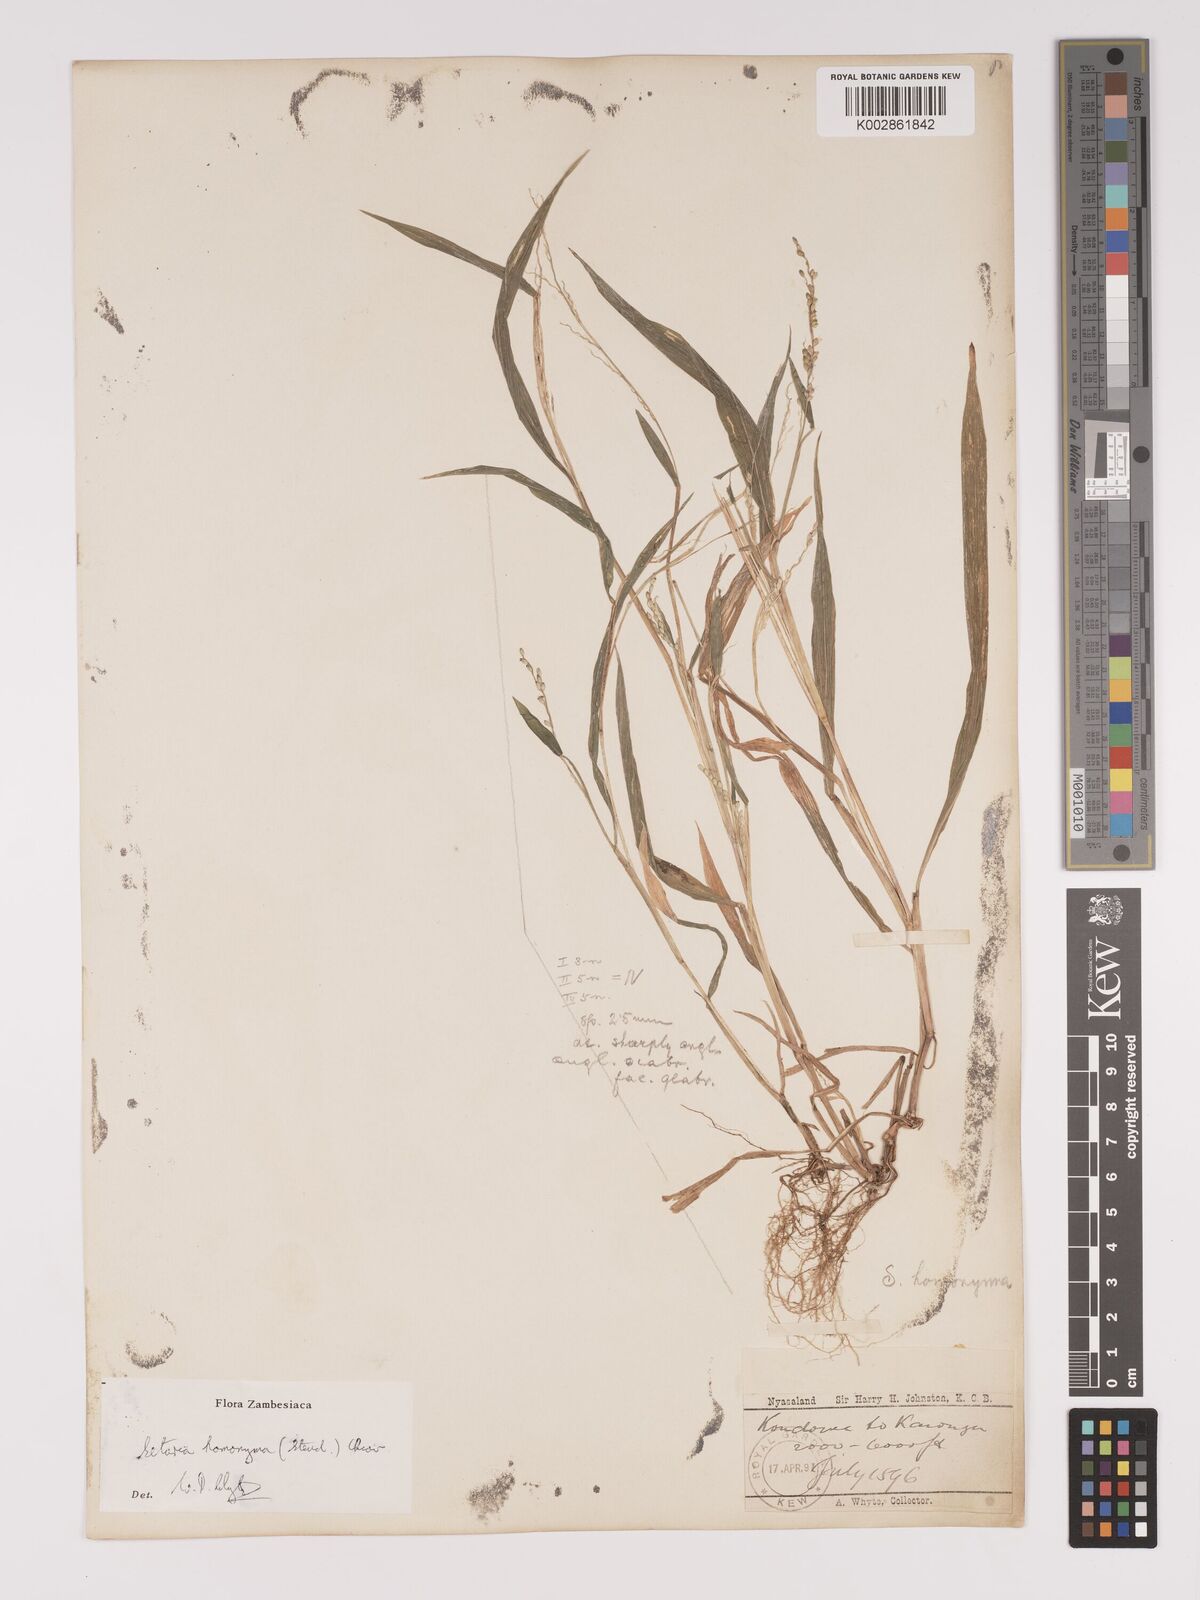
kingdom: Plantae
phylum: Tracheophyta
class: Liliopsida
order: Poales
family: Poaceae
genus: Setaria
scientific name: Setaria homonyma
